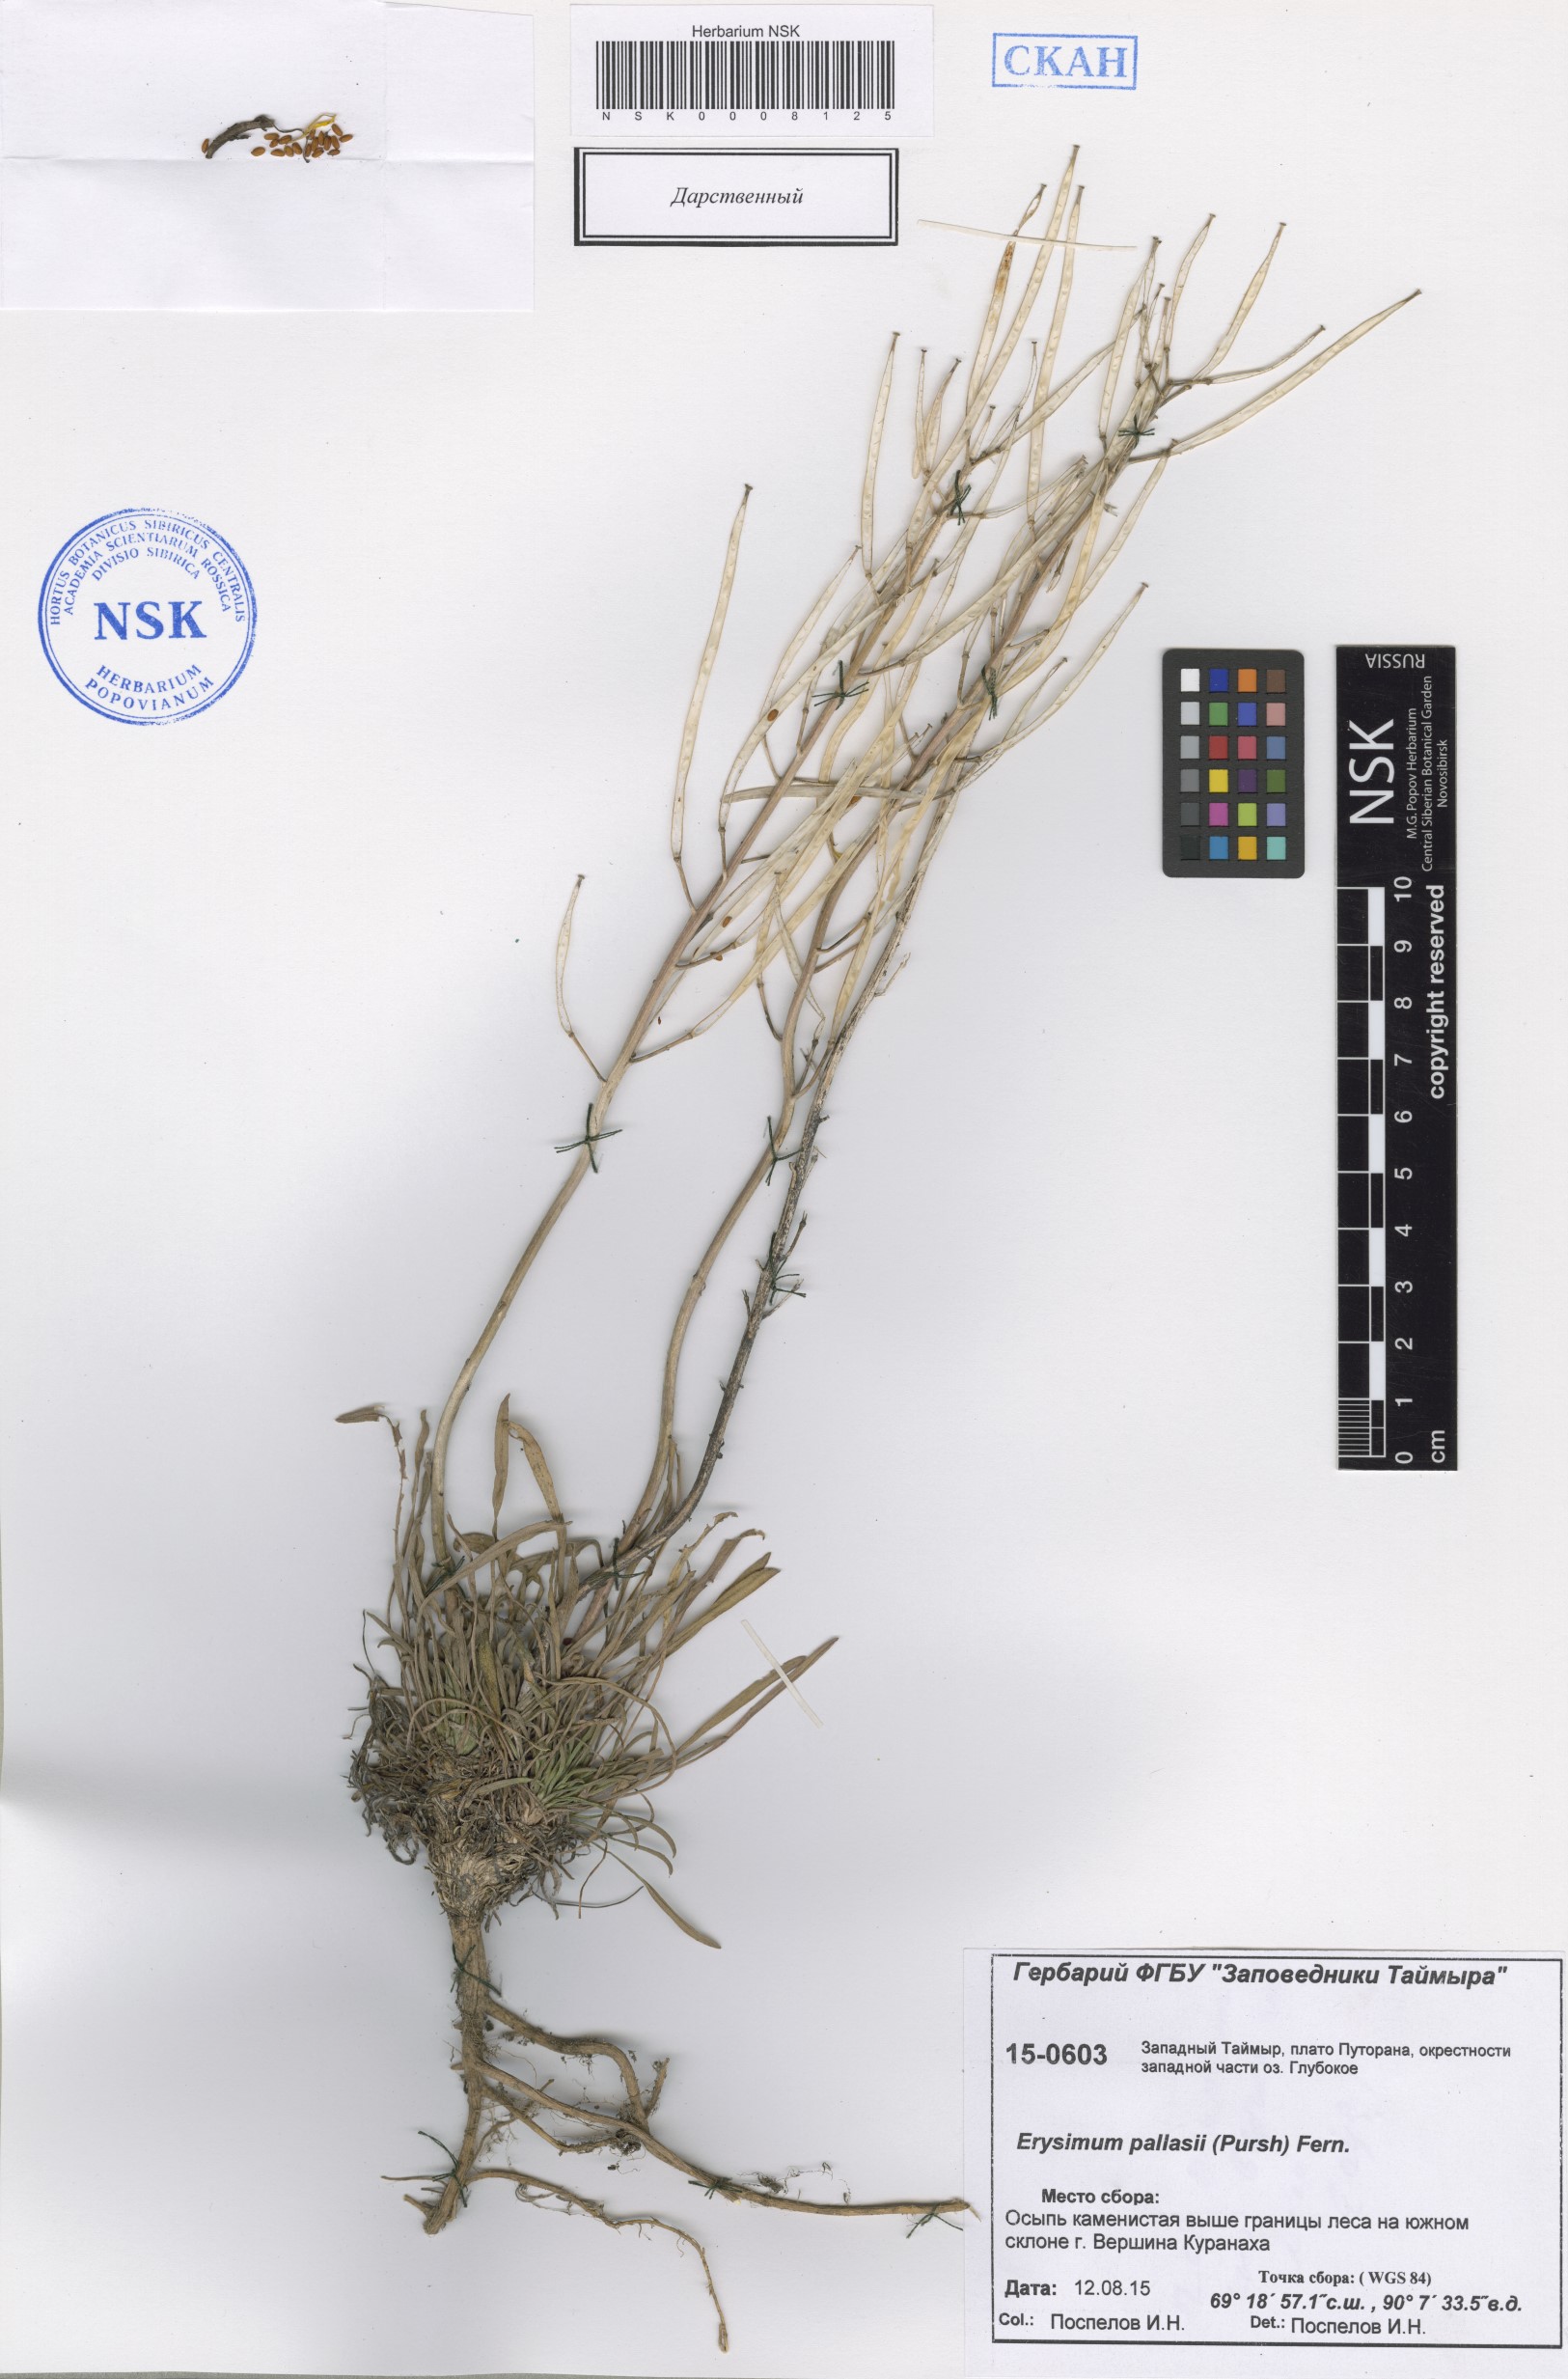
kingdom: Plantae
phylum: Tracheophyta
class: Magnoliopsida
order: Brassicales
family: Brassicaceae
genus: Erysimum
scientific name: Erysimum pallasii
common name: Pallas' wallflower
